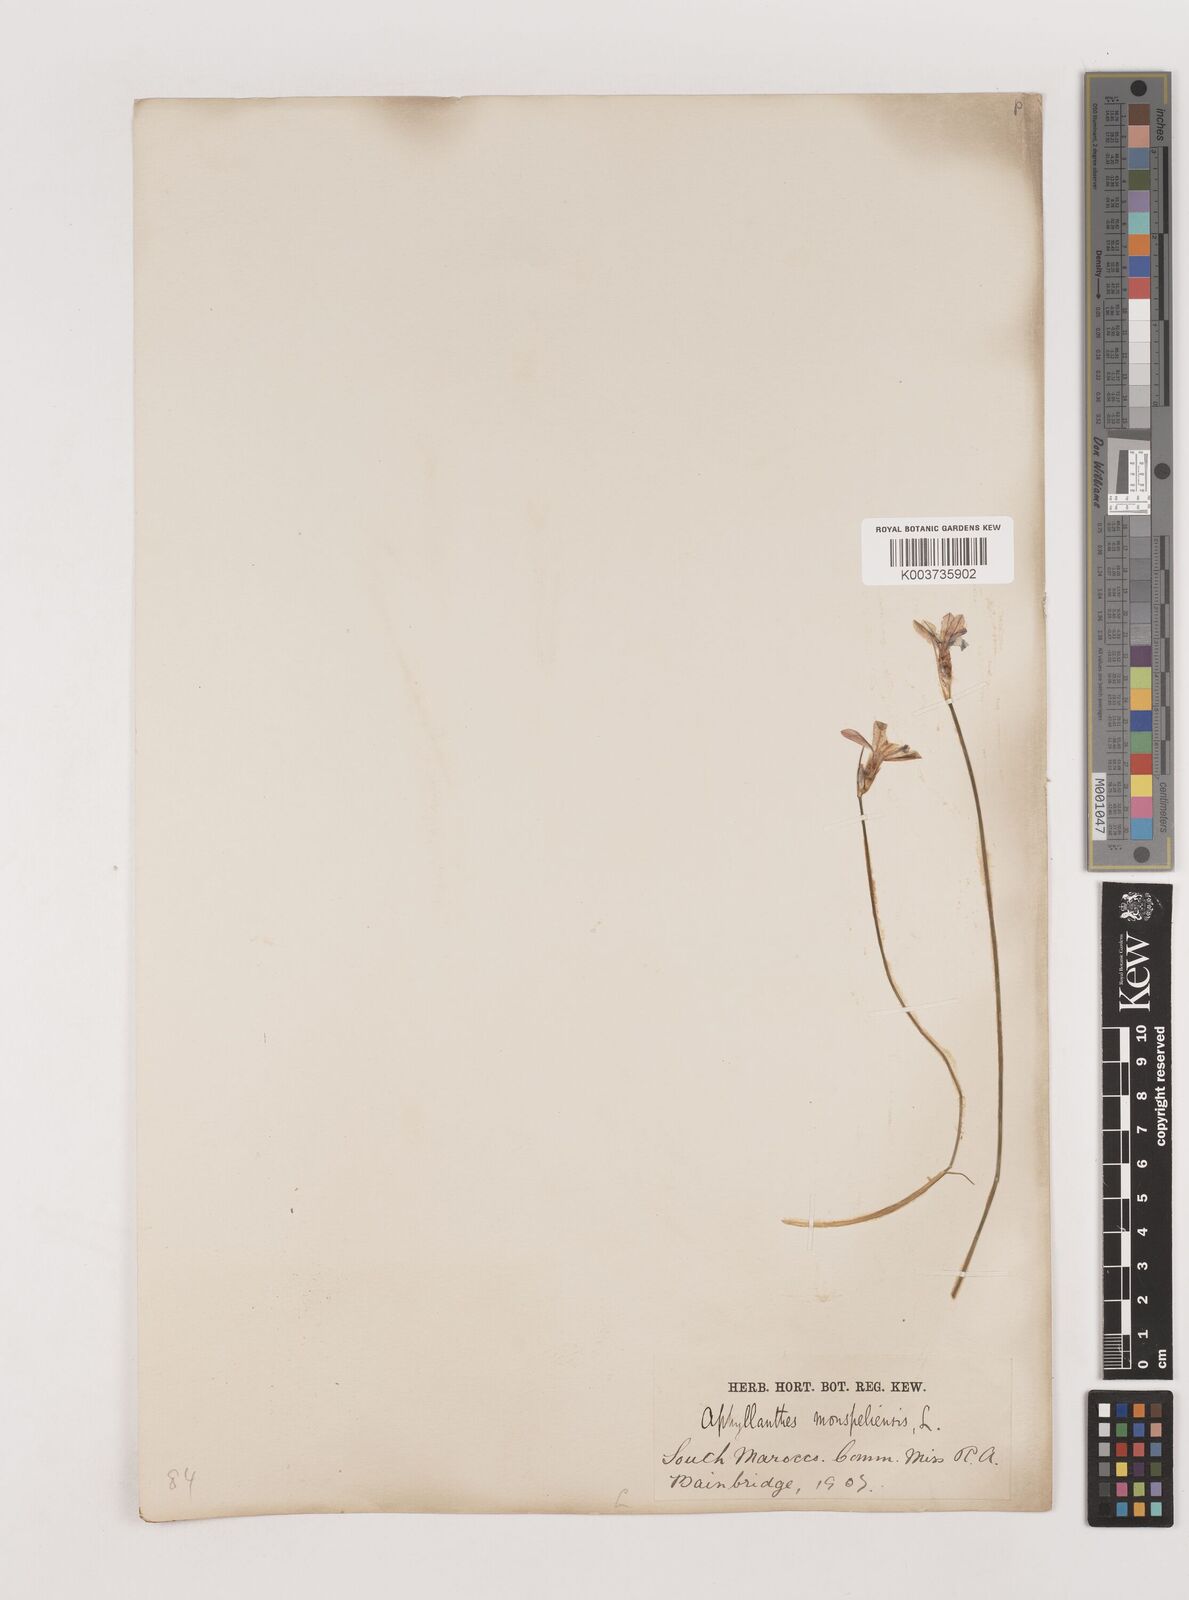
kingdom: Plantae
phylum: Tracheophyta
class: Liliopsida
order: Asparagales
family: Asparagaceae
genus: Aphyllanthes
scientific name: Aphyllanthes monspeliensis
